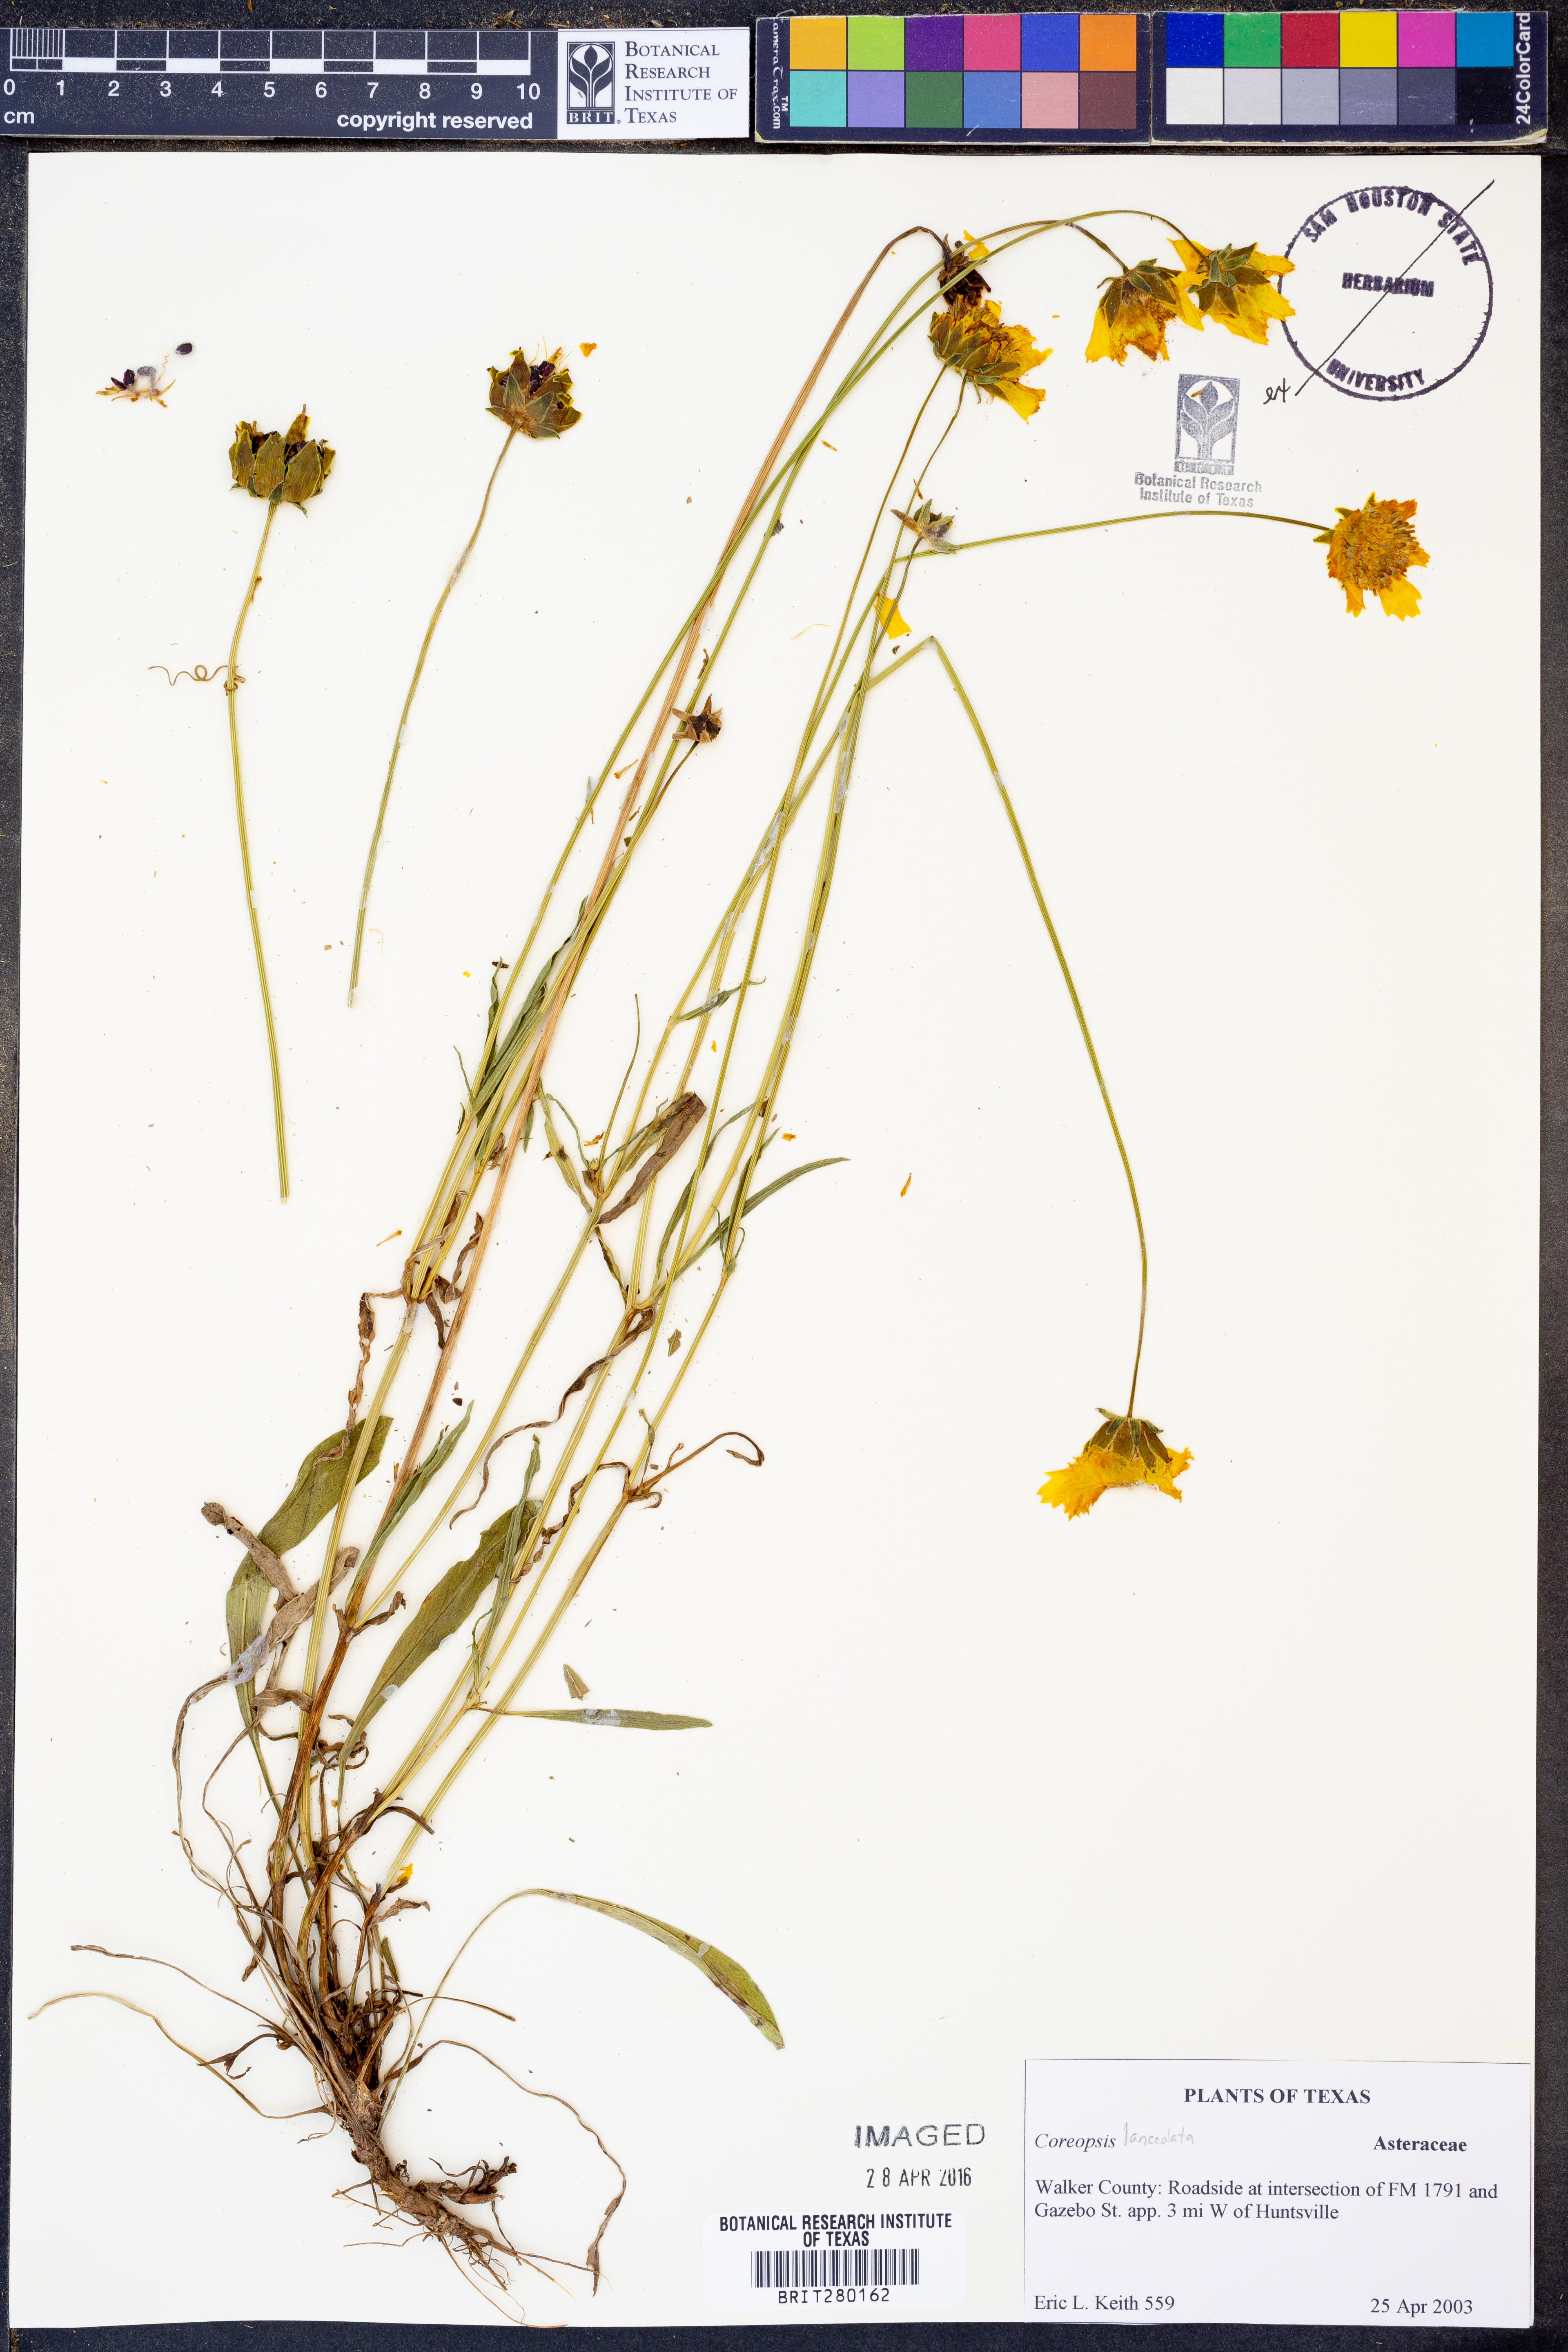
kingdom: Plantae
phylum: Tracheophyta
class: Magnoliopsida
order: Asterales
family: Asteraceae
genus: Coreopsis
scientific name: Coreopsis lanceolata
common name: Garden coreopsis
